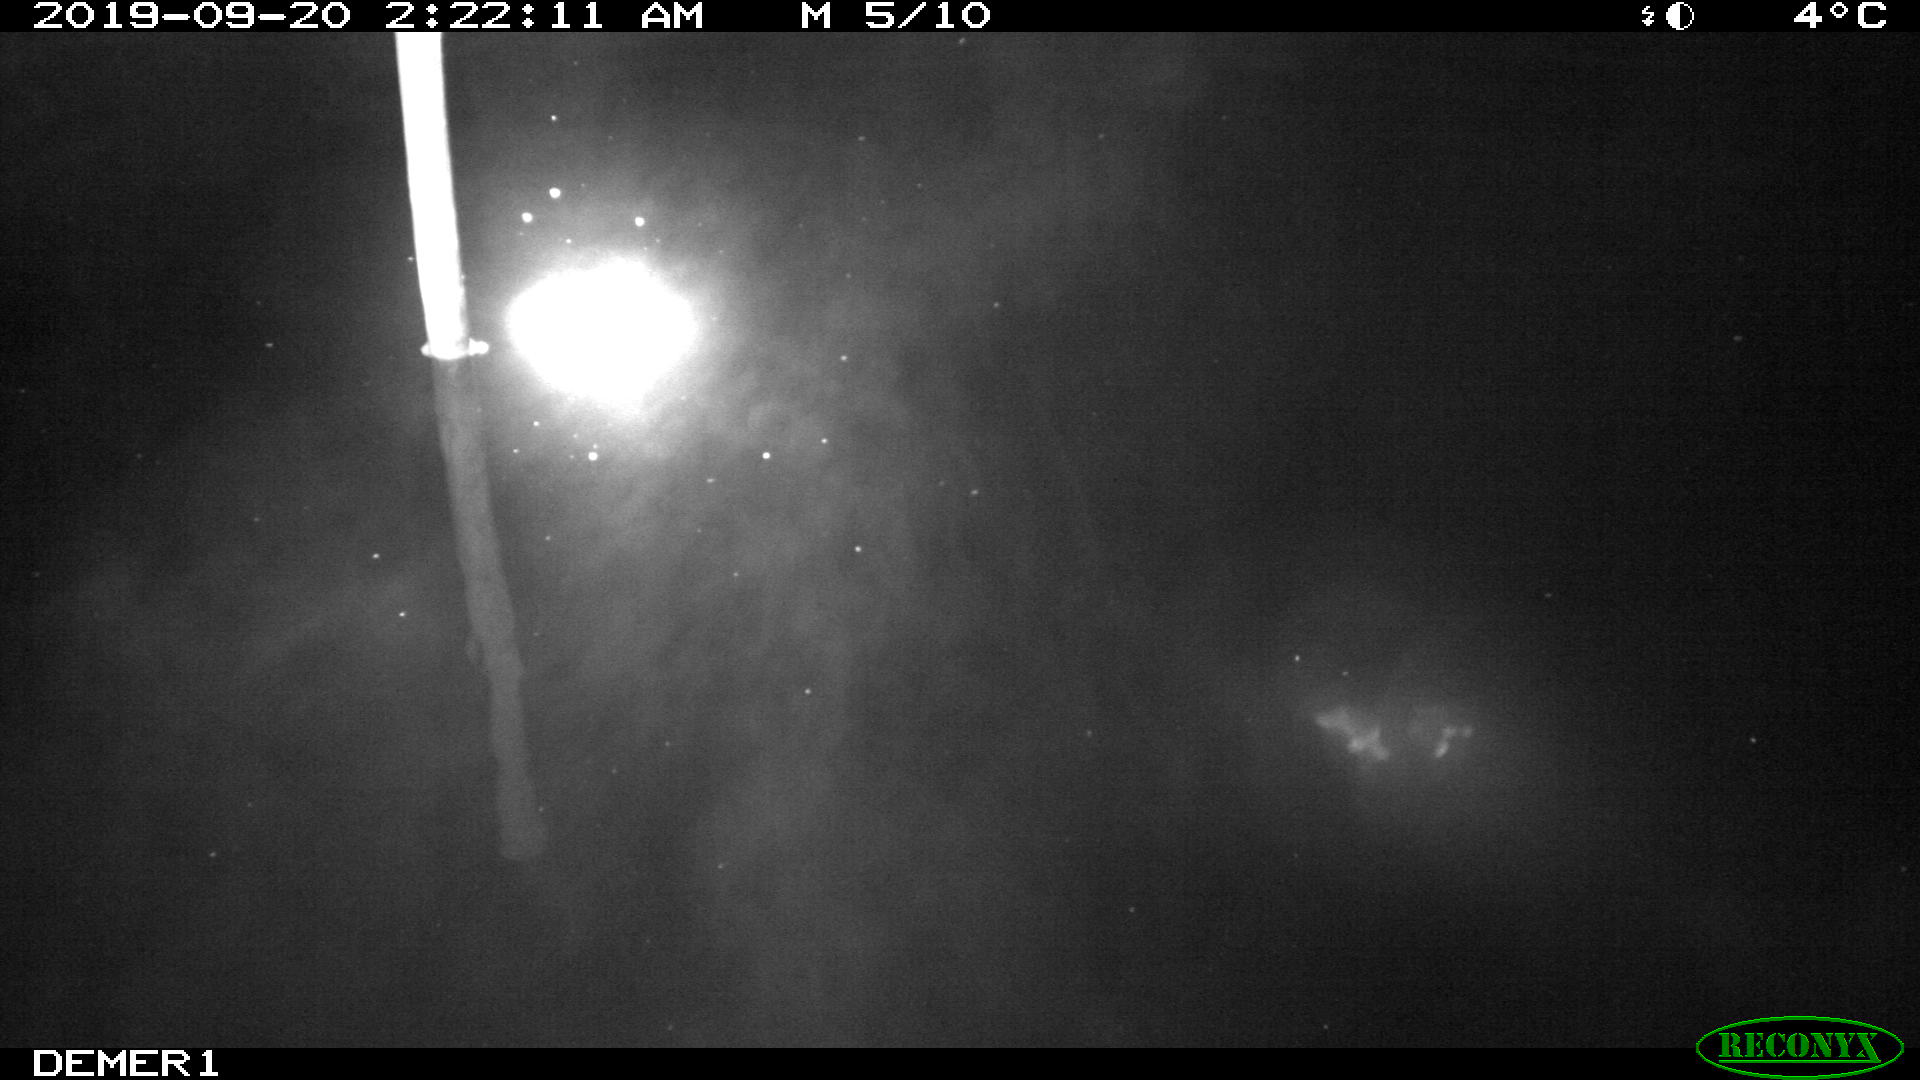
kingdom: Animalia
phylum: Chordata
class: Aves
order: Anseriformes
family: Anatidae
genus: Anas
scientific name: Anas platyrhynchos
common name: Mallard
